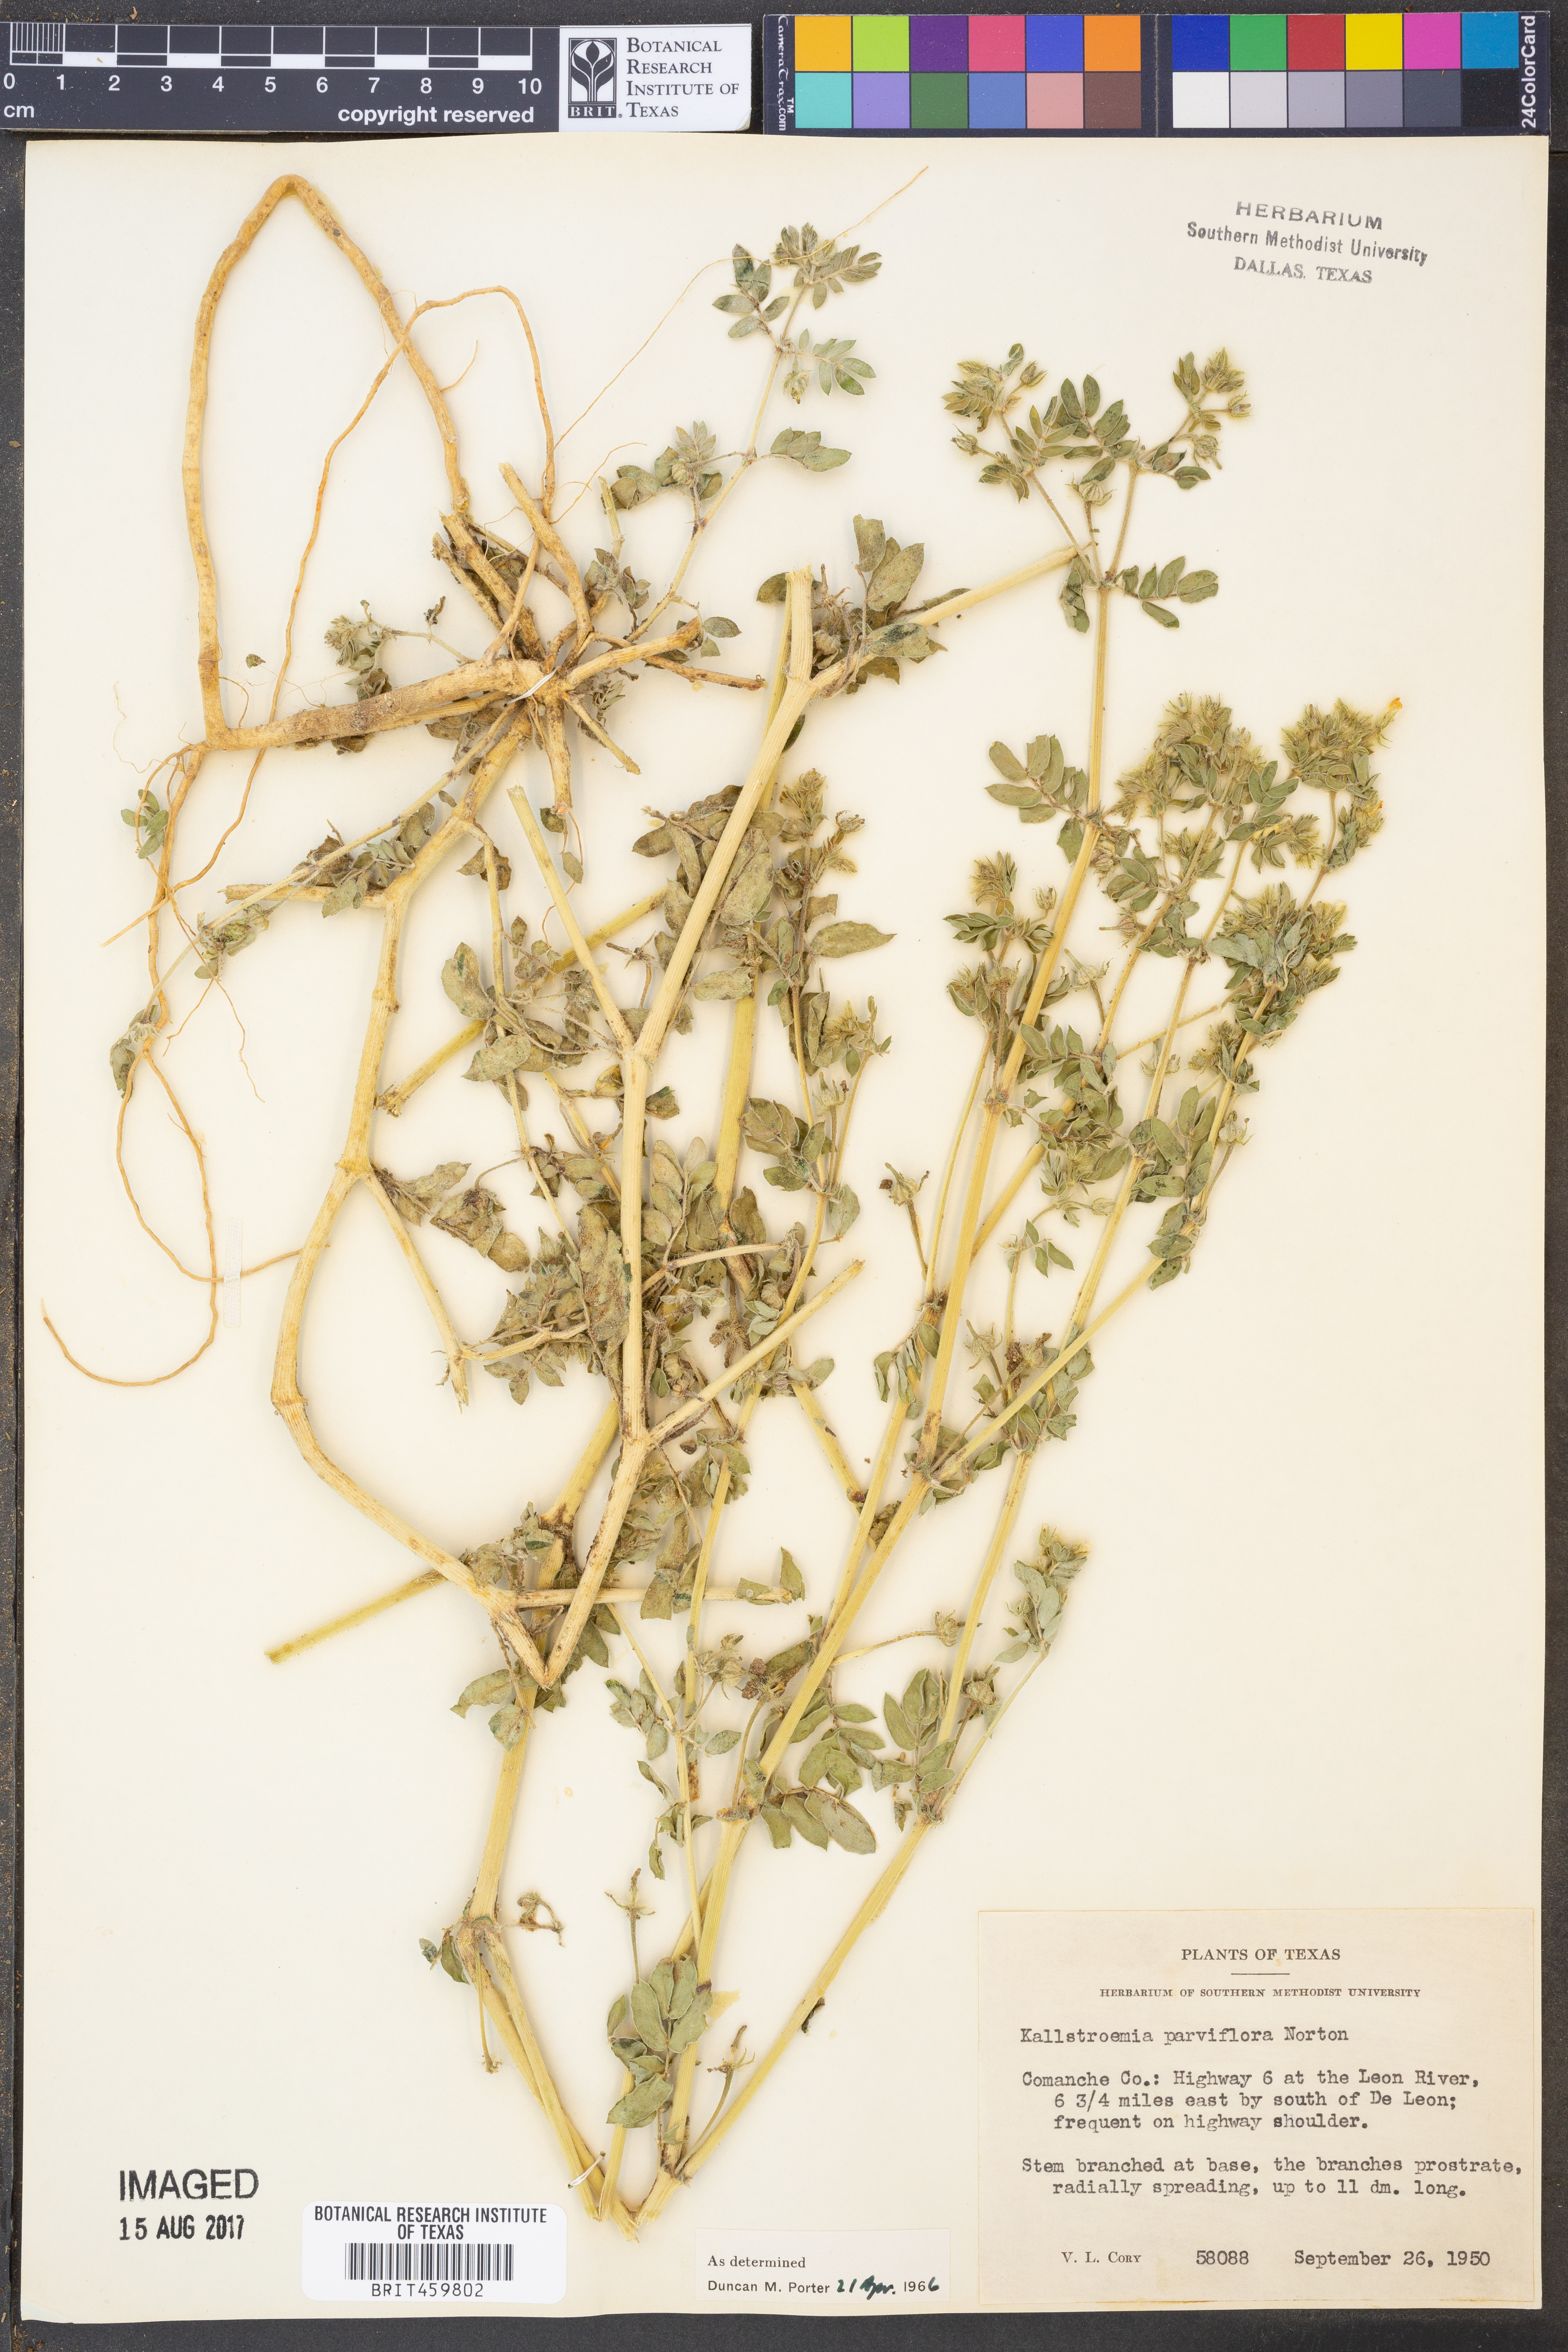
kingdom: Plantae
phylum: Tracheophyta
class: Magnoliopsida
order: Zygophyllales
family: Zygophyllaceae
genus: Kallstroemia
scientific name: Kallstroemia parviflora
